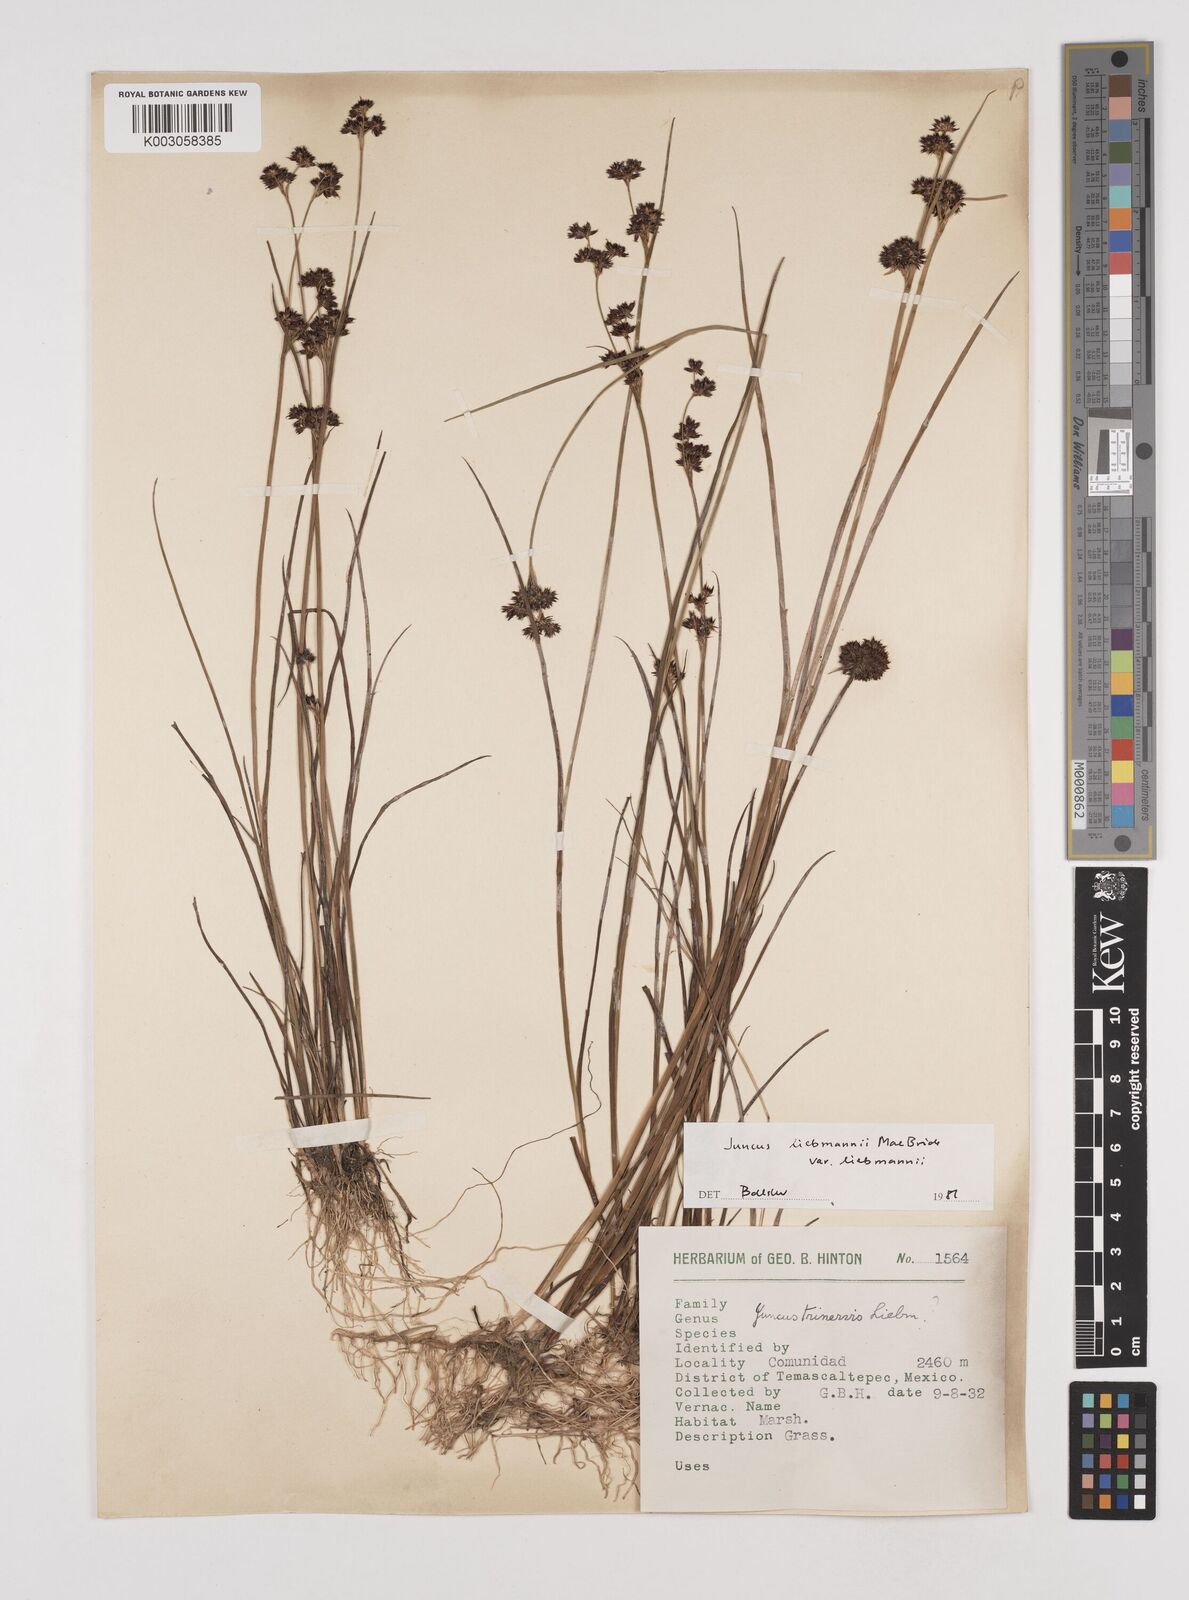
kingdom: Plantae
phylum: Tracheophyta
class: Liliopsida
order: Poales
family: Juncaceae
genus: Juncus
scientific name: Juncus liebmannii
